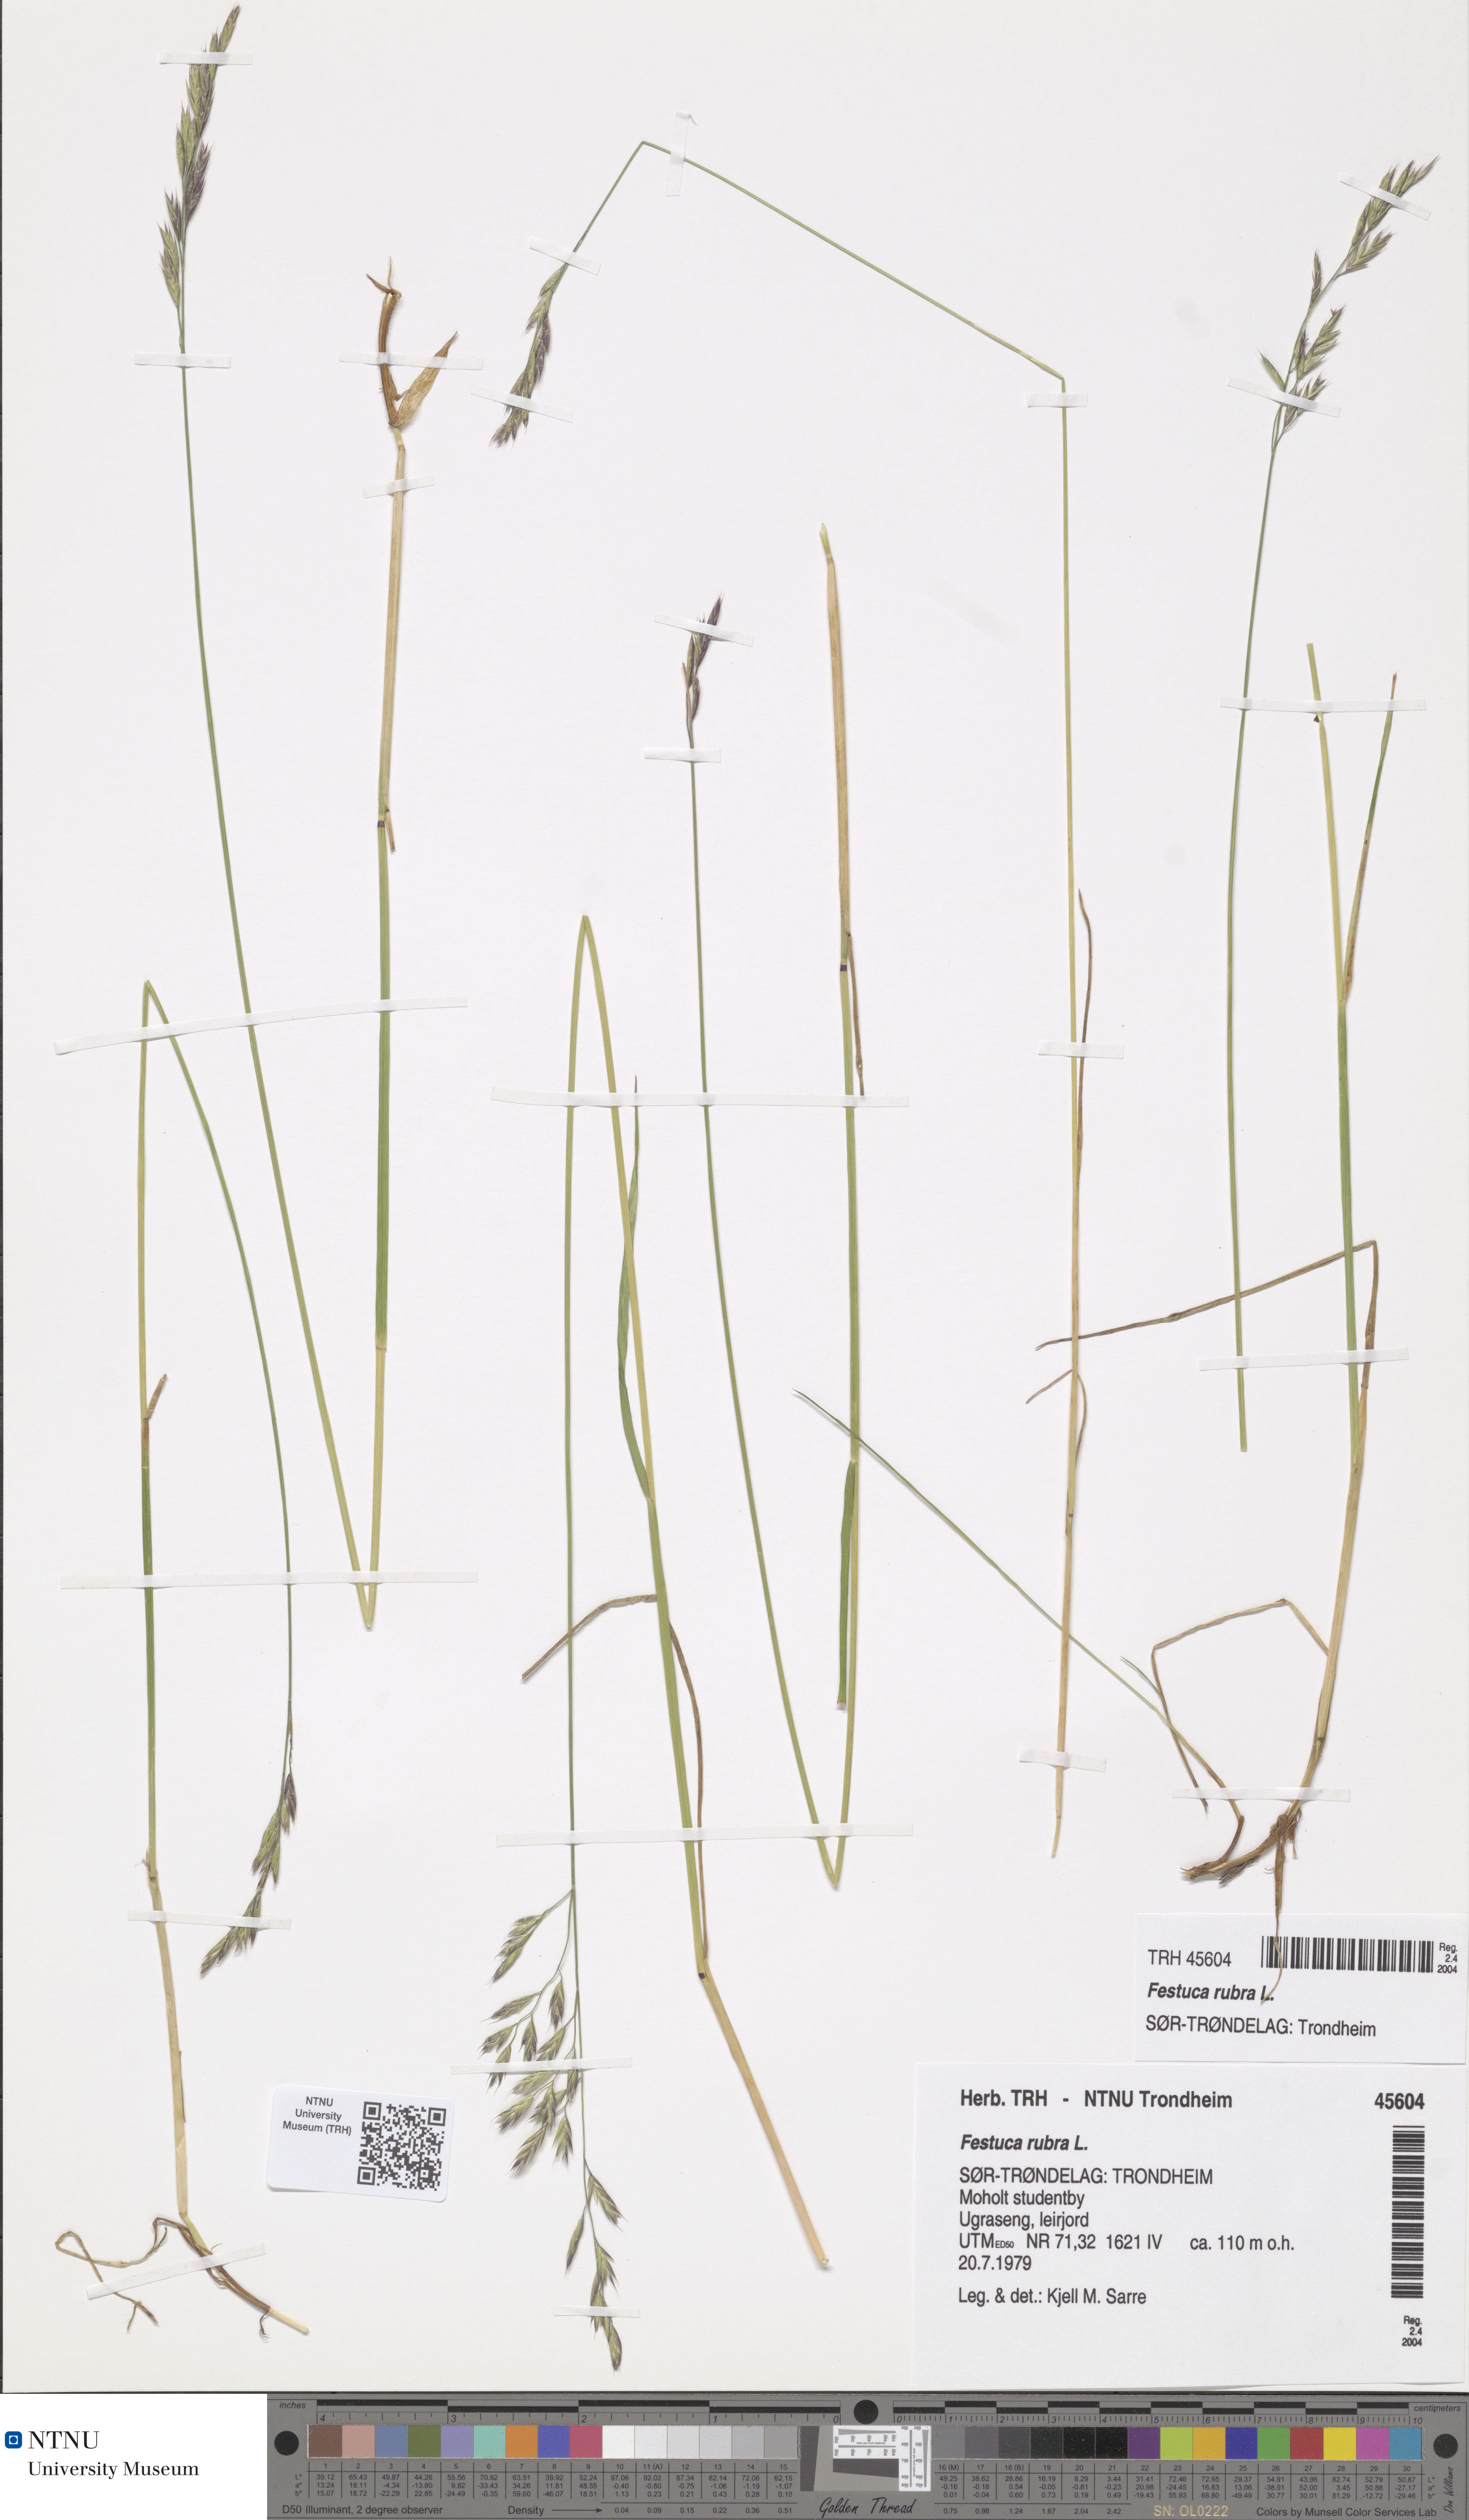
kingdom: Plantae
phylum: Tracheophyta
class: Liliopsida
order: Poales
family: Poaceae
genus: Festuca
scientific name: Festuca rubra
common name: Red fescue
